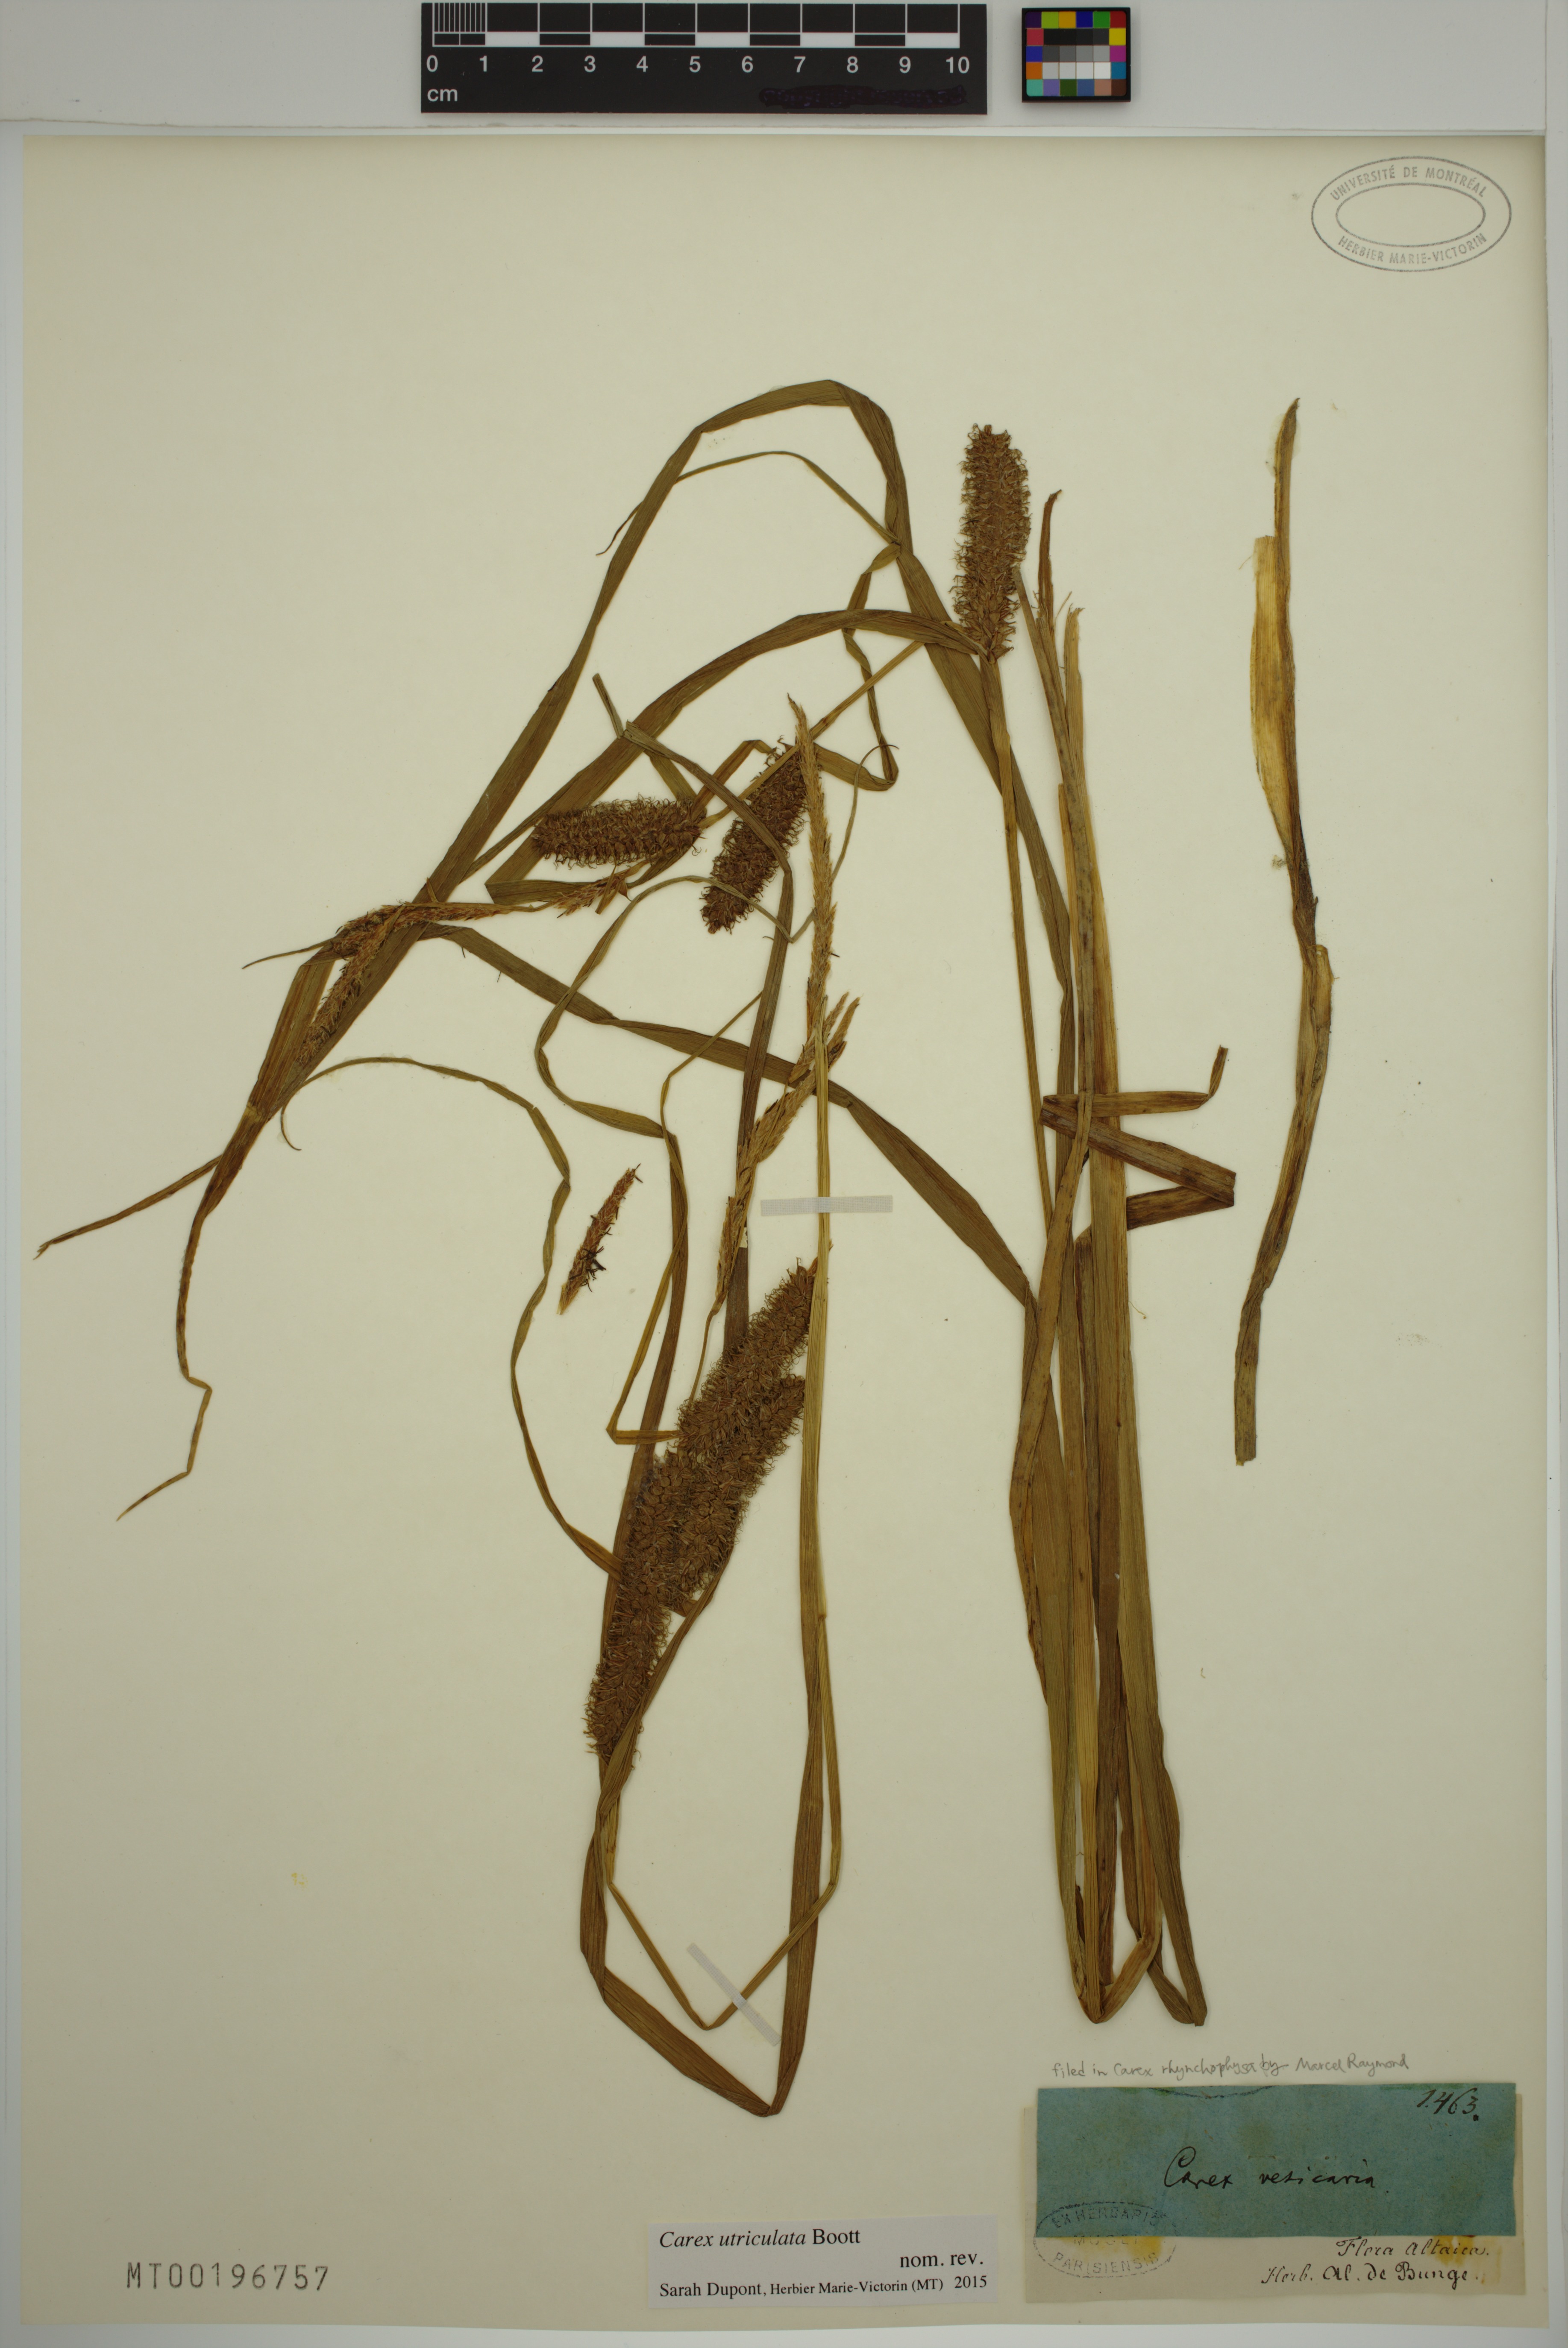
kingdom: Plantae
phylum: Tracheophyta
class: Liliopsida
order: Poales
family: Cyperaceae
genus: Carex
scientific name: Carex utriculata
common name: Beaked sedge
